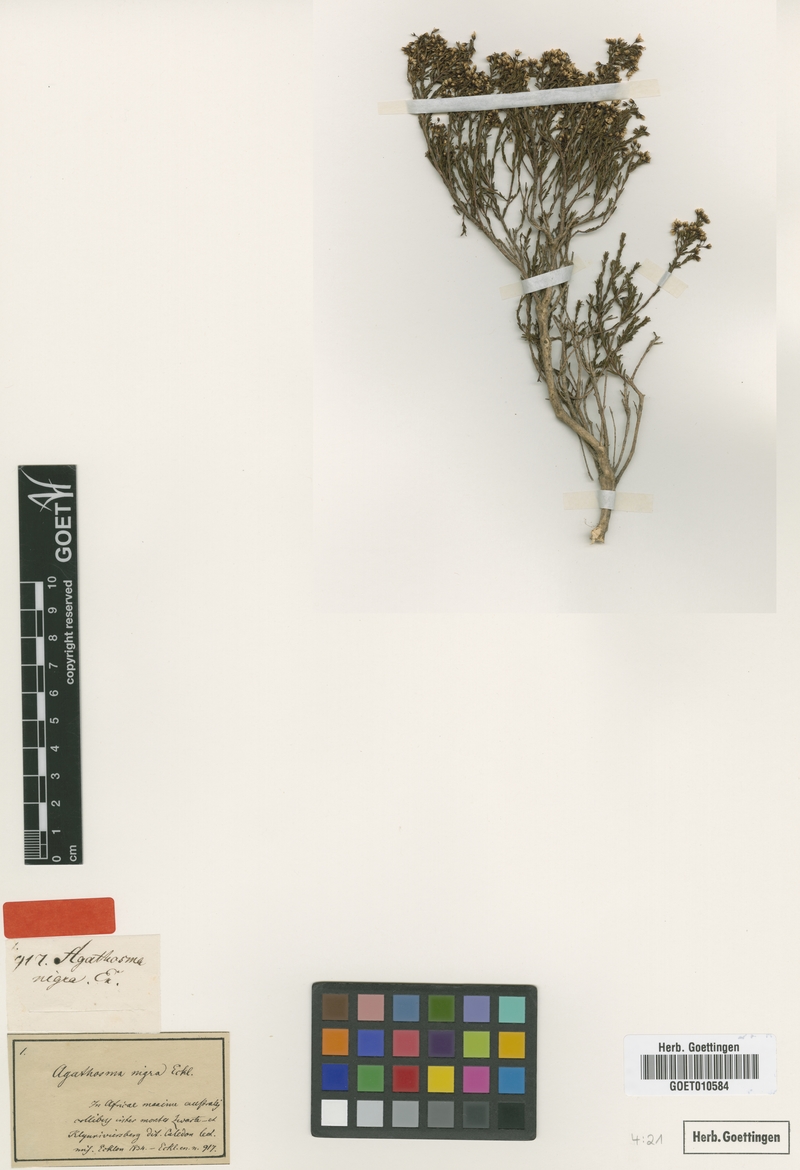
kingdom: Plantae
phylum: Tracheophyta
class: Magnoliopsida
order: Sapindales
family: Rutaceae
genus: Agathosma
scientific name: Agathosma capensis
